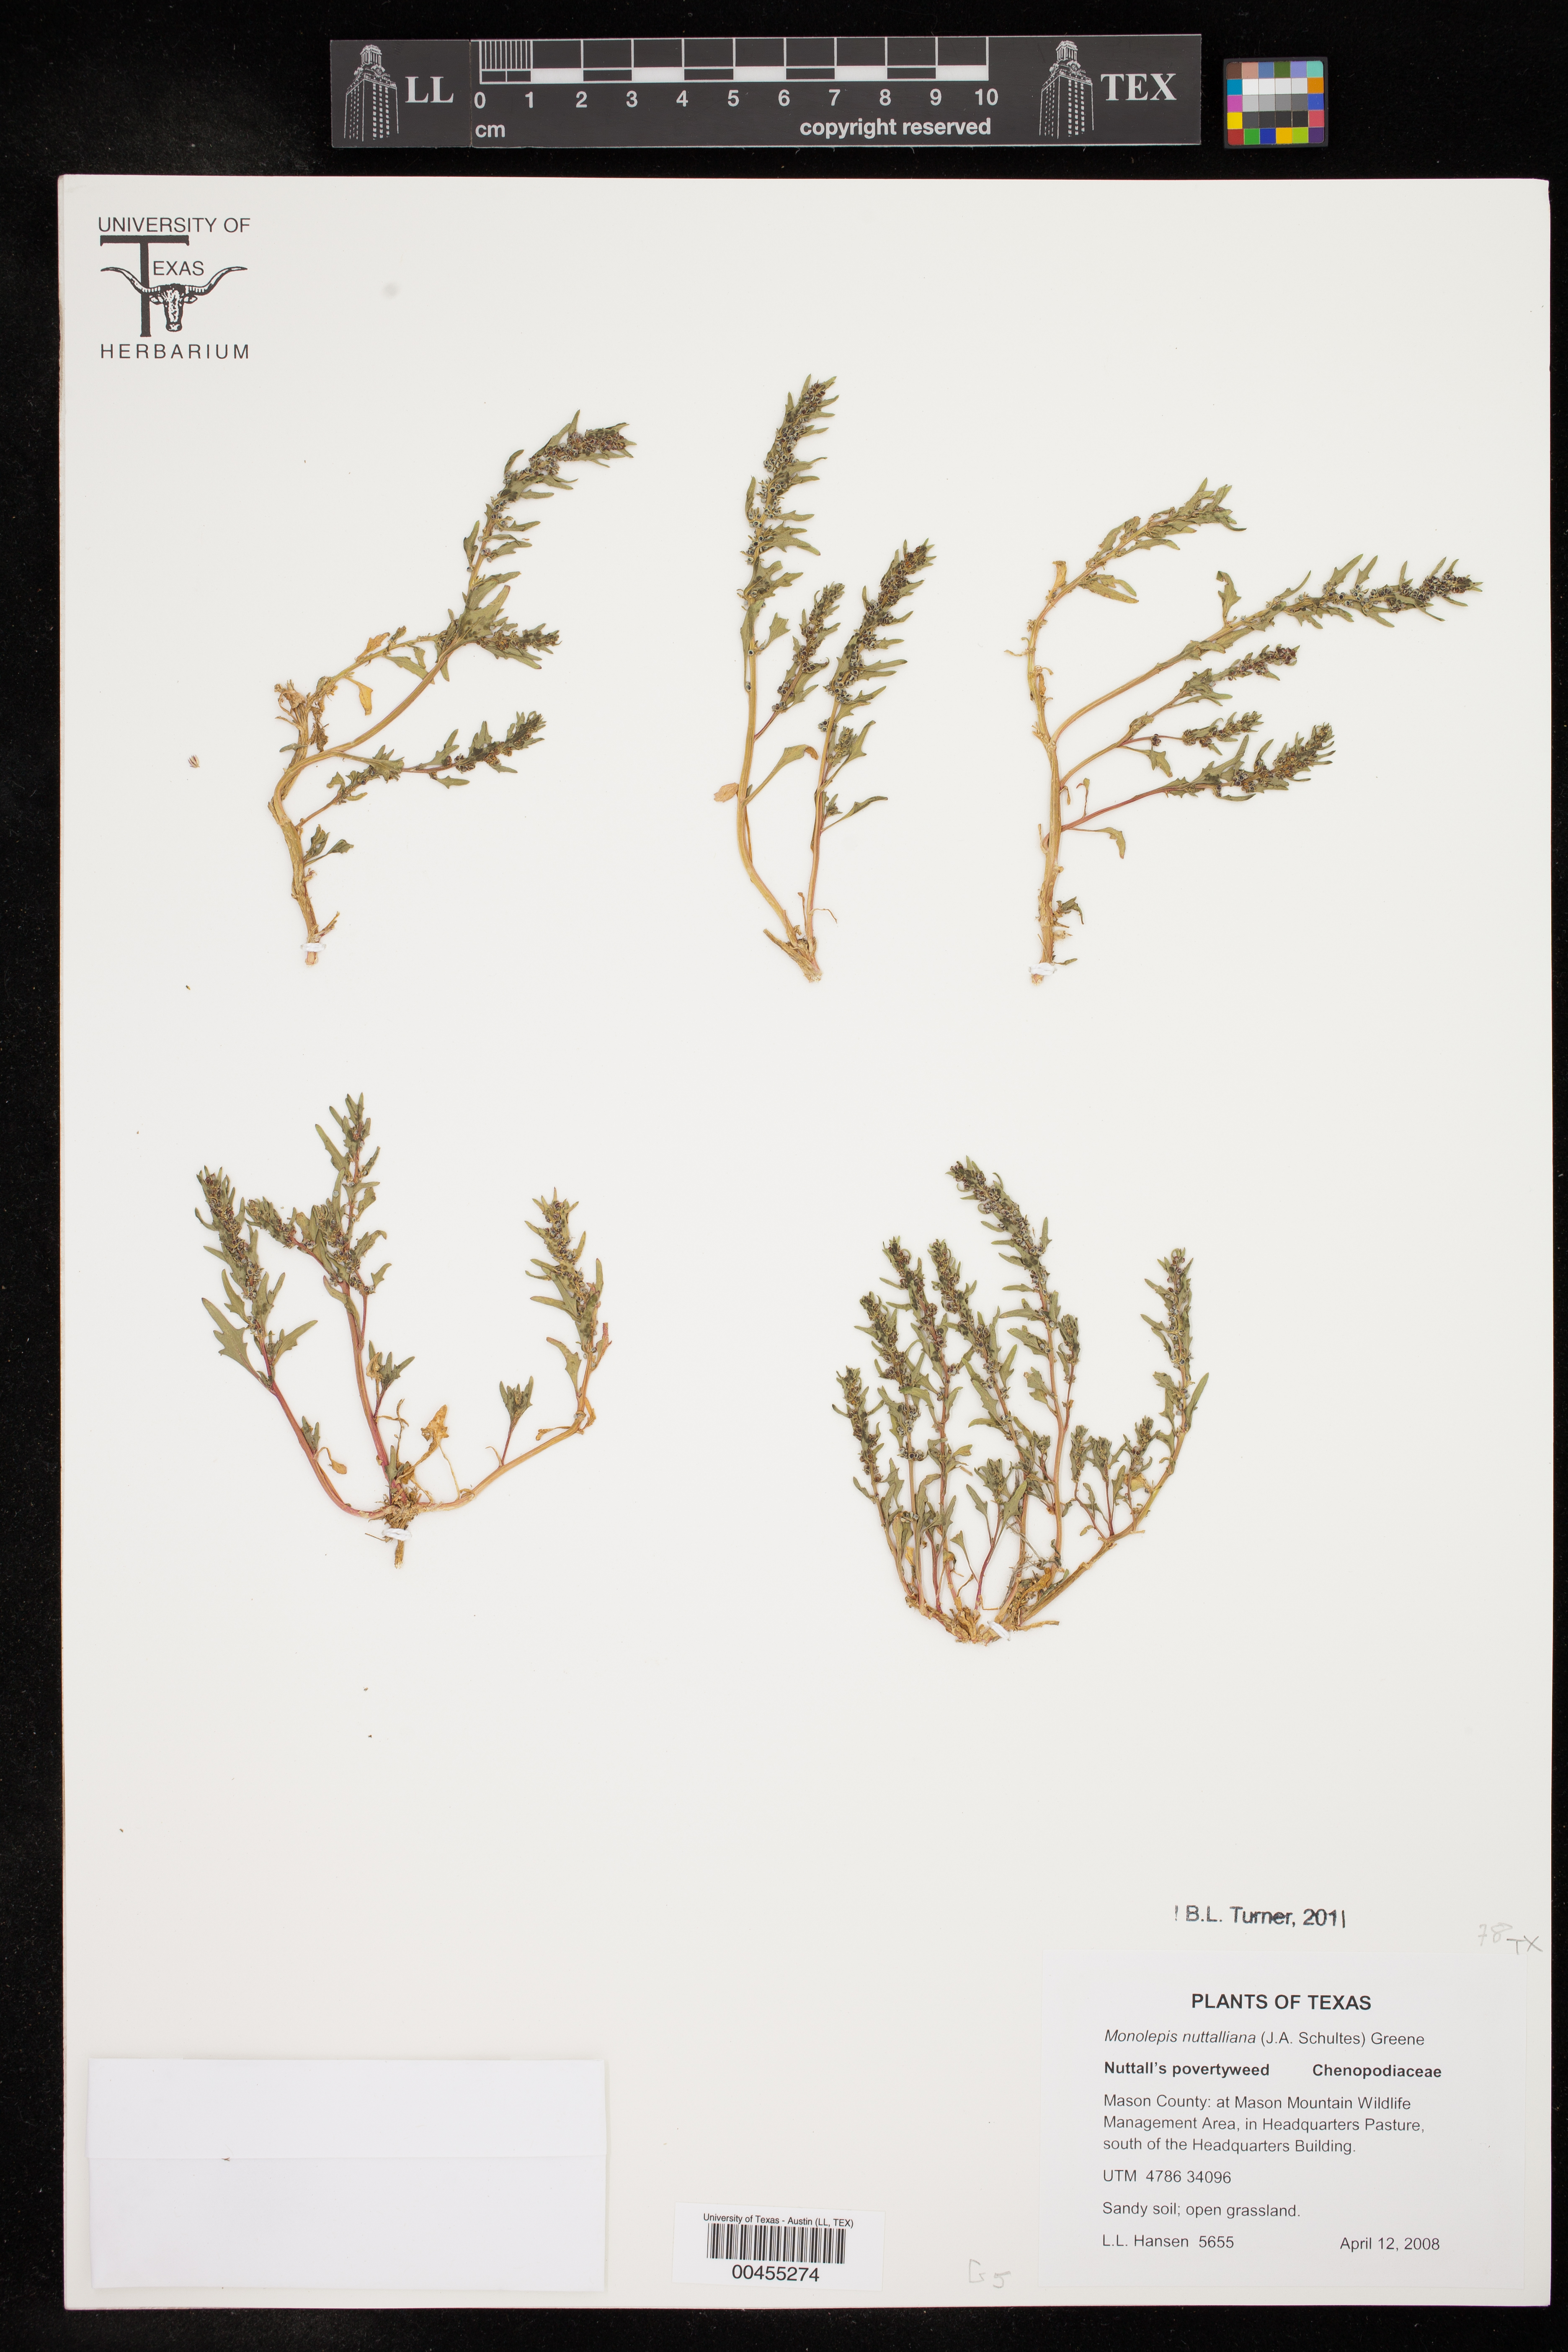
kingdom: Plantae
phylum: Tracheophyta
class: Magnoliopsida
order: Caryophyllales
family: Amaranthaceae
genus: Blitum
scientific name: Blitum nuttallianum
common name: Poverty-weed
